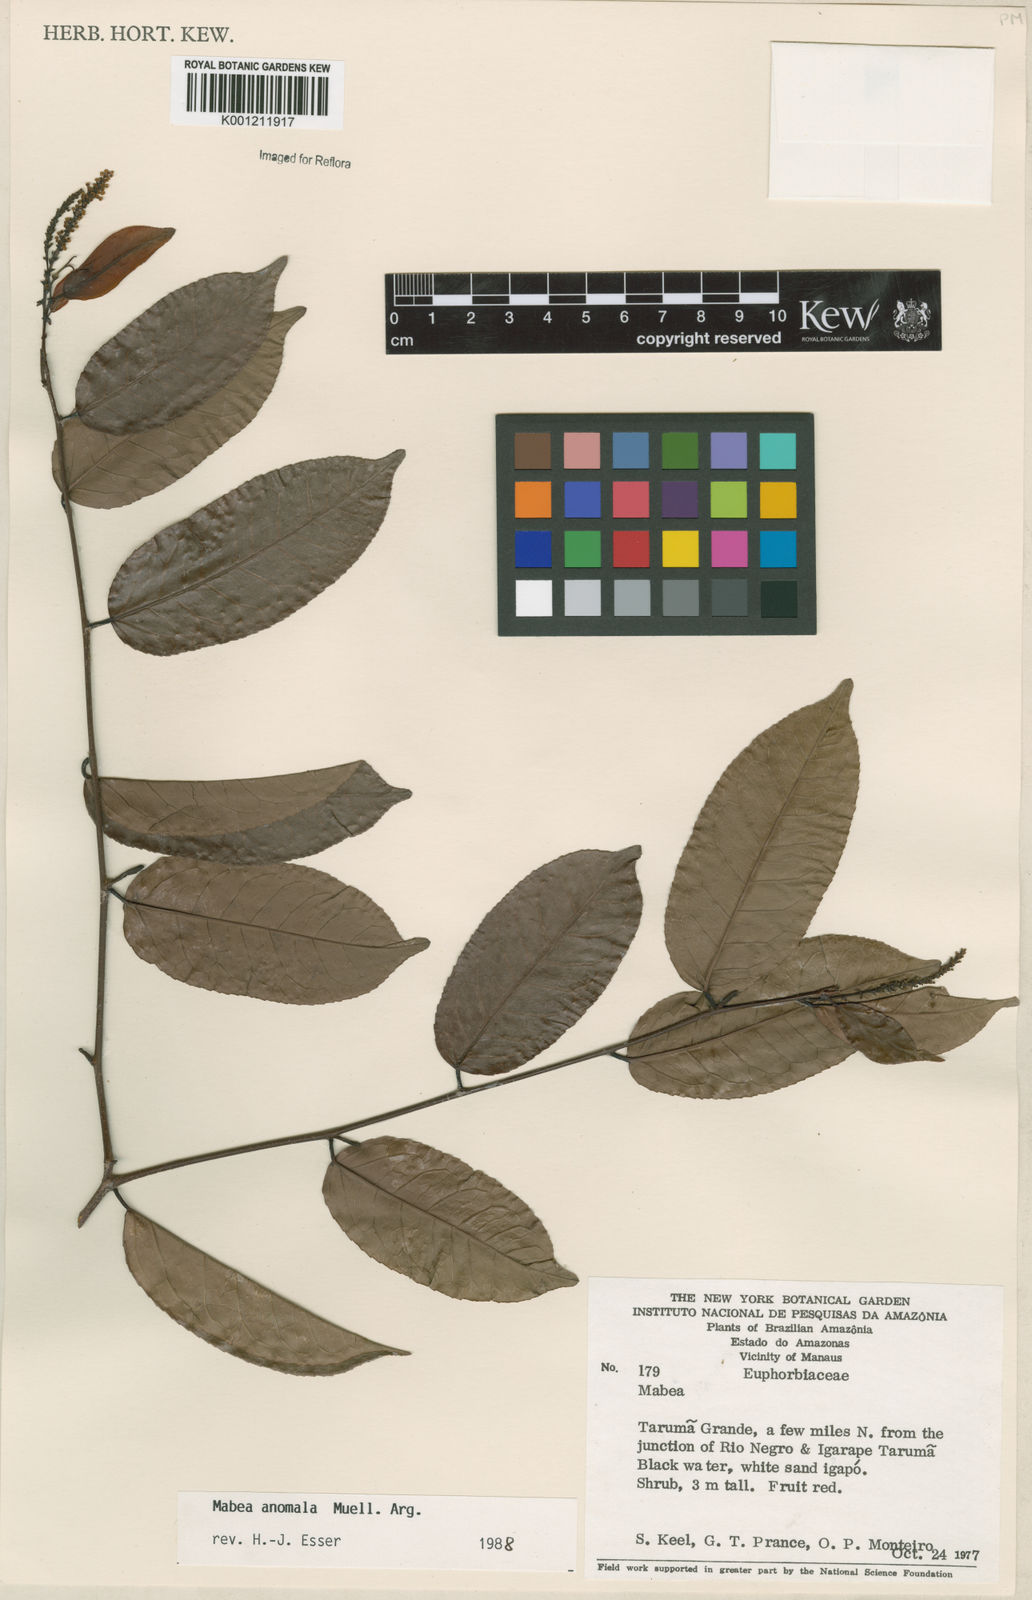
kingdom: Plantae
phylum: Tracheophyta
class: Magnoliopsida
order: Malpighiales
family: Euphorbiaceae
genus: Mabea
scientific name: Mabea
